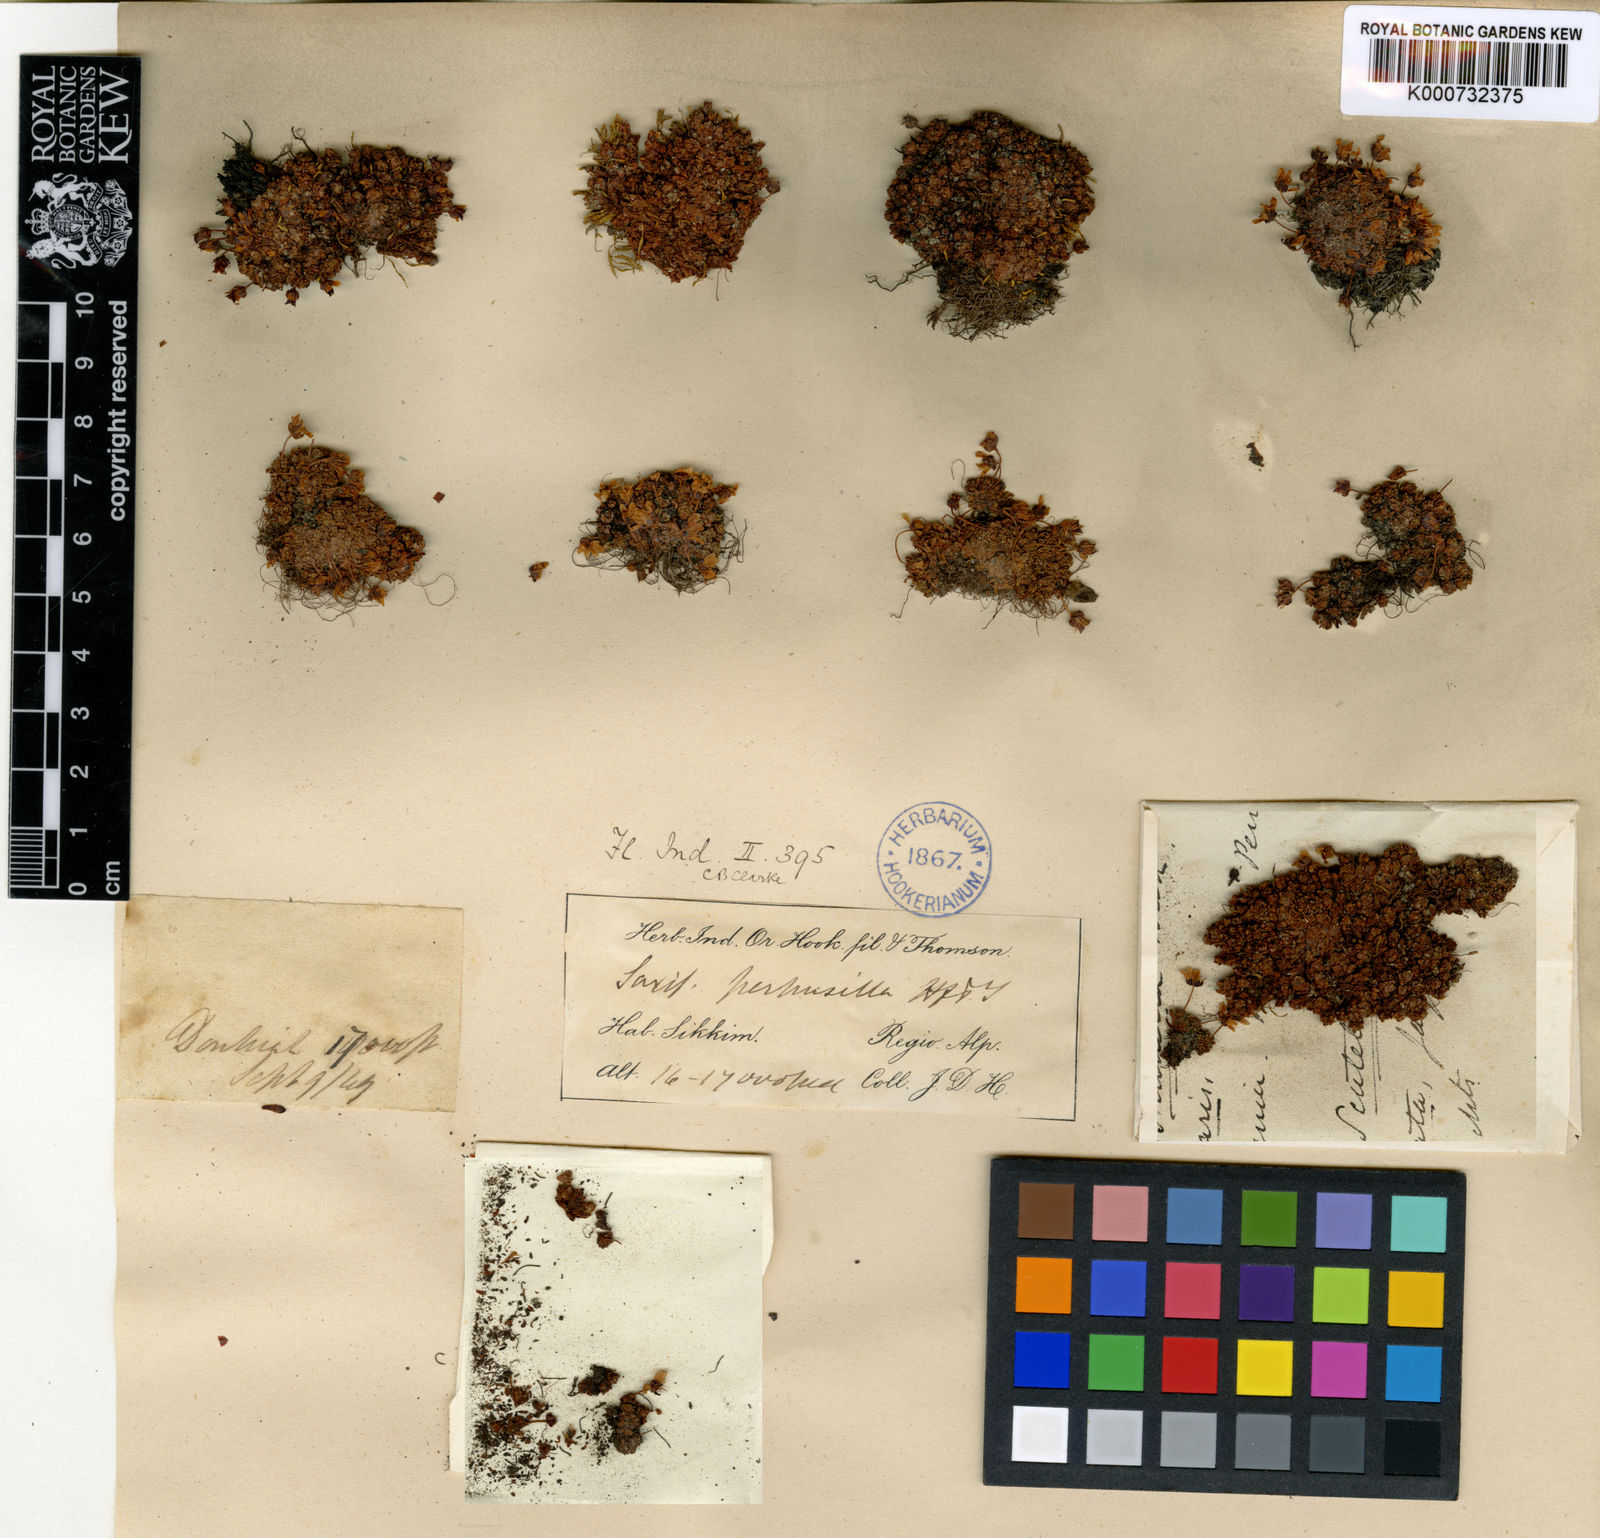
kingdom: Plantae
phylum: Tracheophyta
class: Magnoliopsida
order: Saxifragales
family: Saxifragaceae
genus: Saxifraga
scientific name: Saxifraga perpusilla
